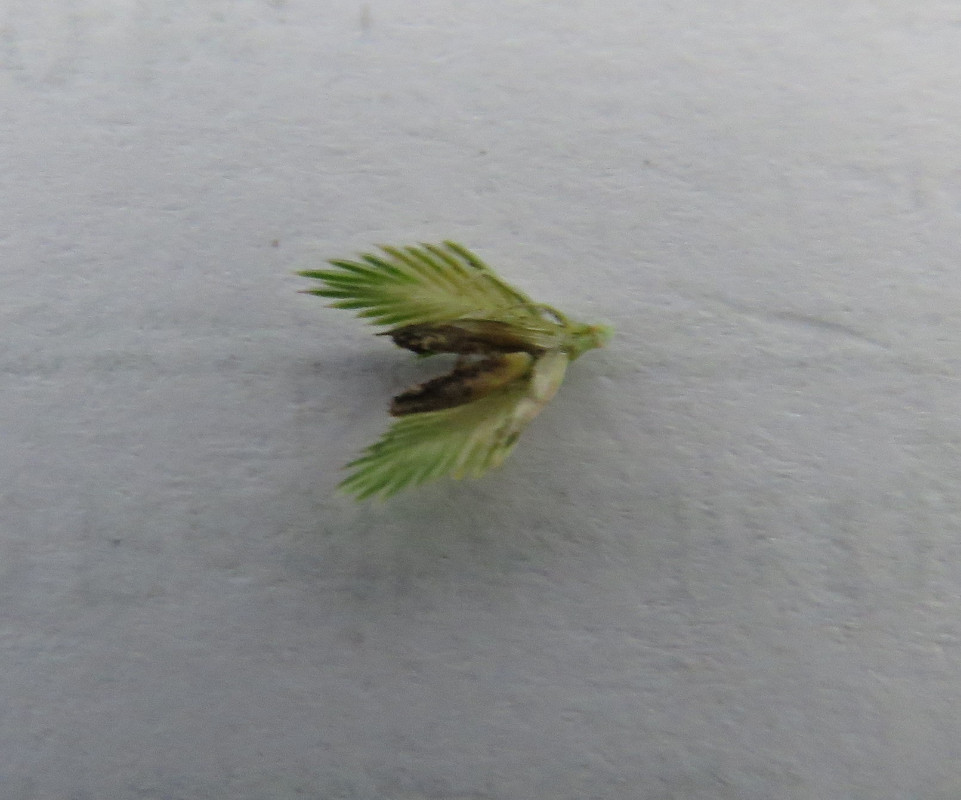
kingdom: Fungi
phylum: Ascomycota
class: Sordariomycetes
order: Hypocreales
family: Clavicipitaceae
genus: Claviceps
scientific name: Claviceps purpurea
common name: almindelig meldrøjer
